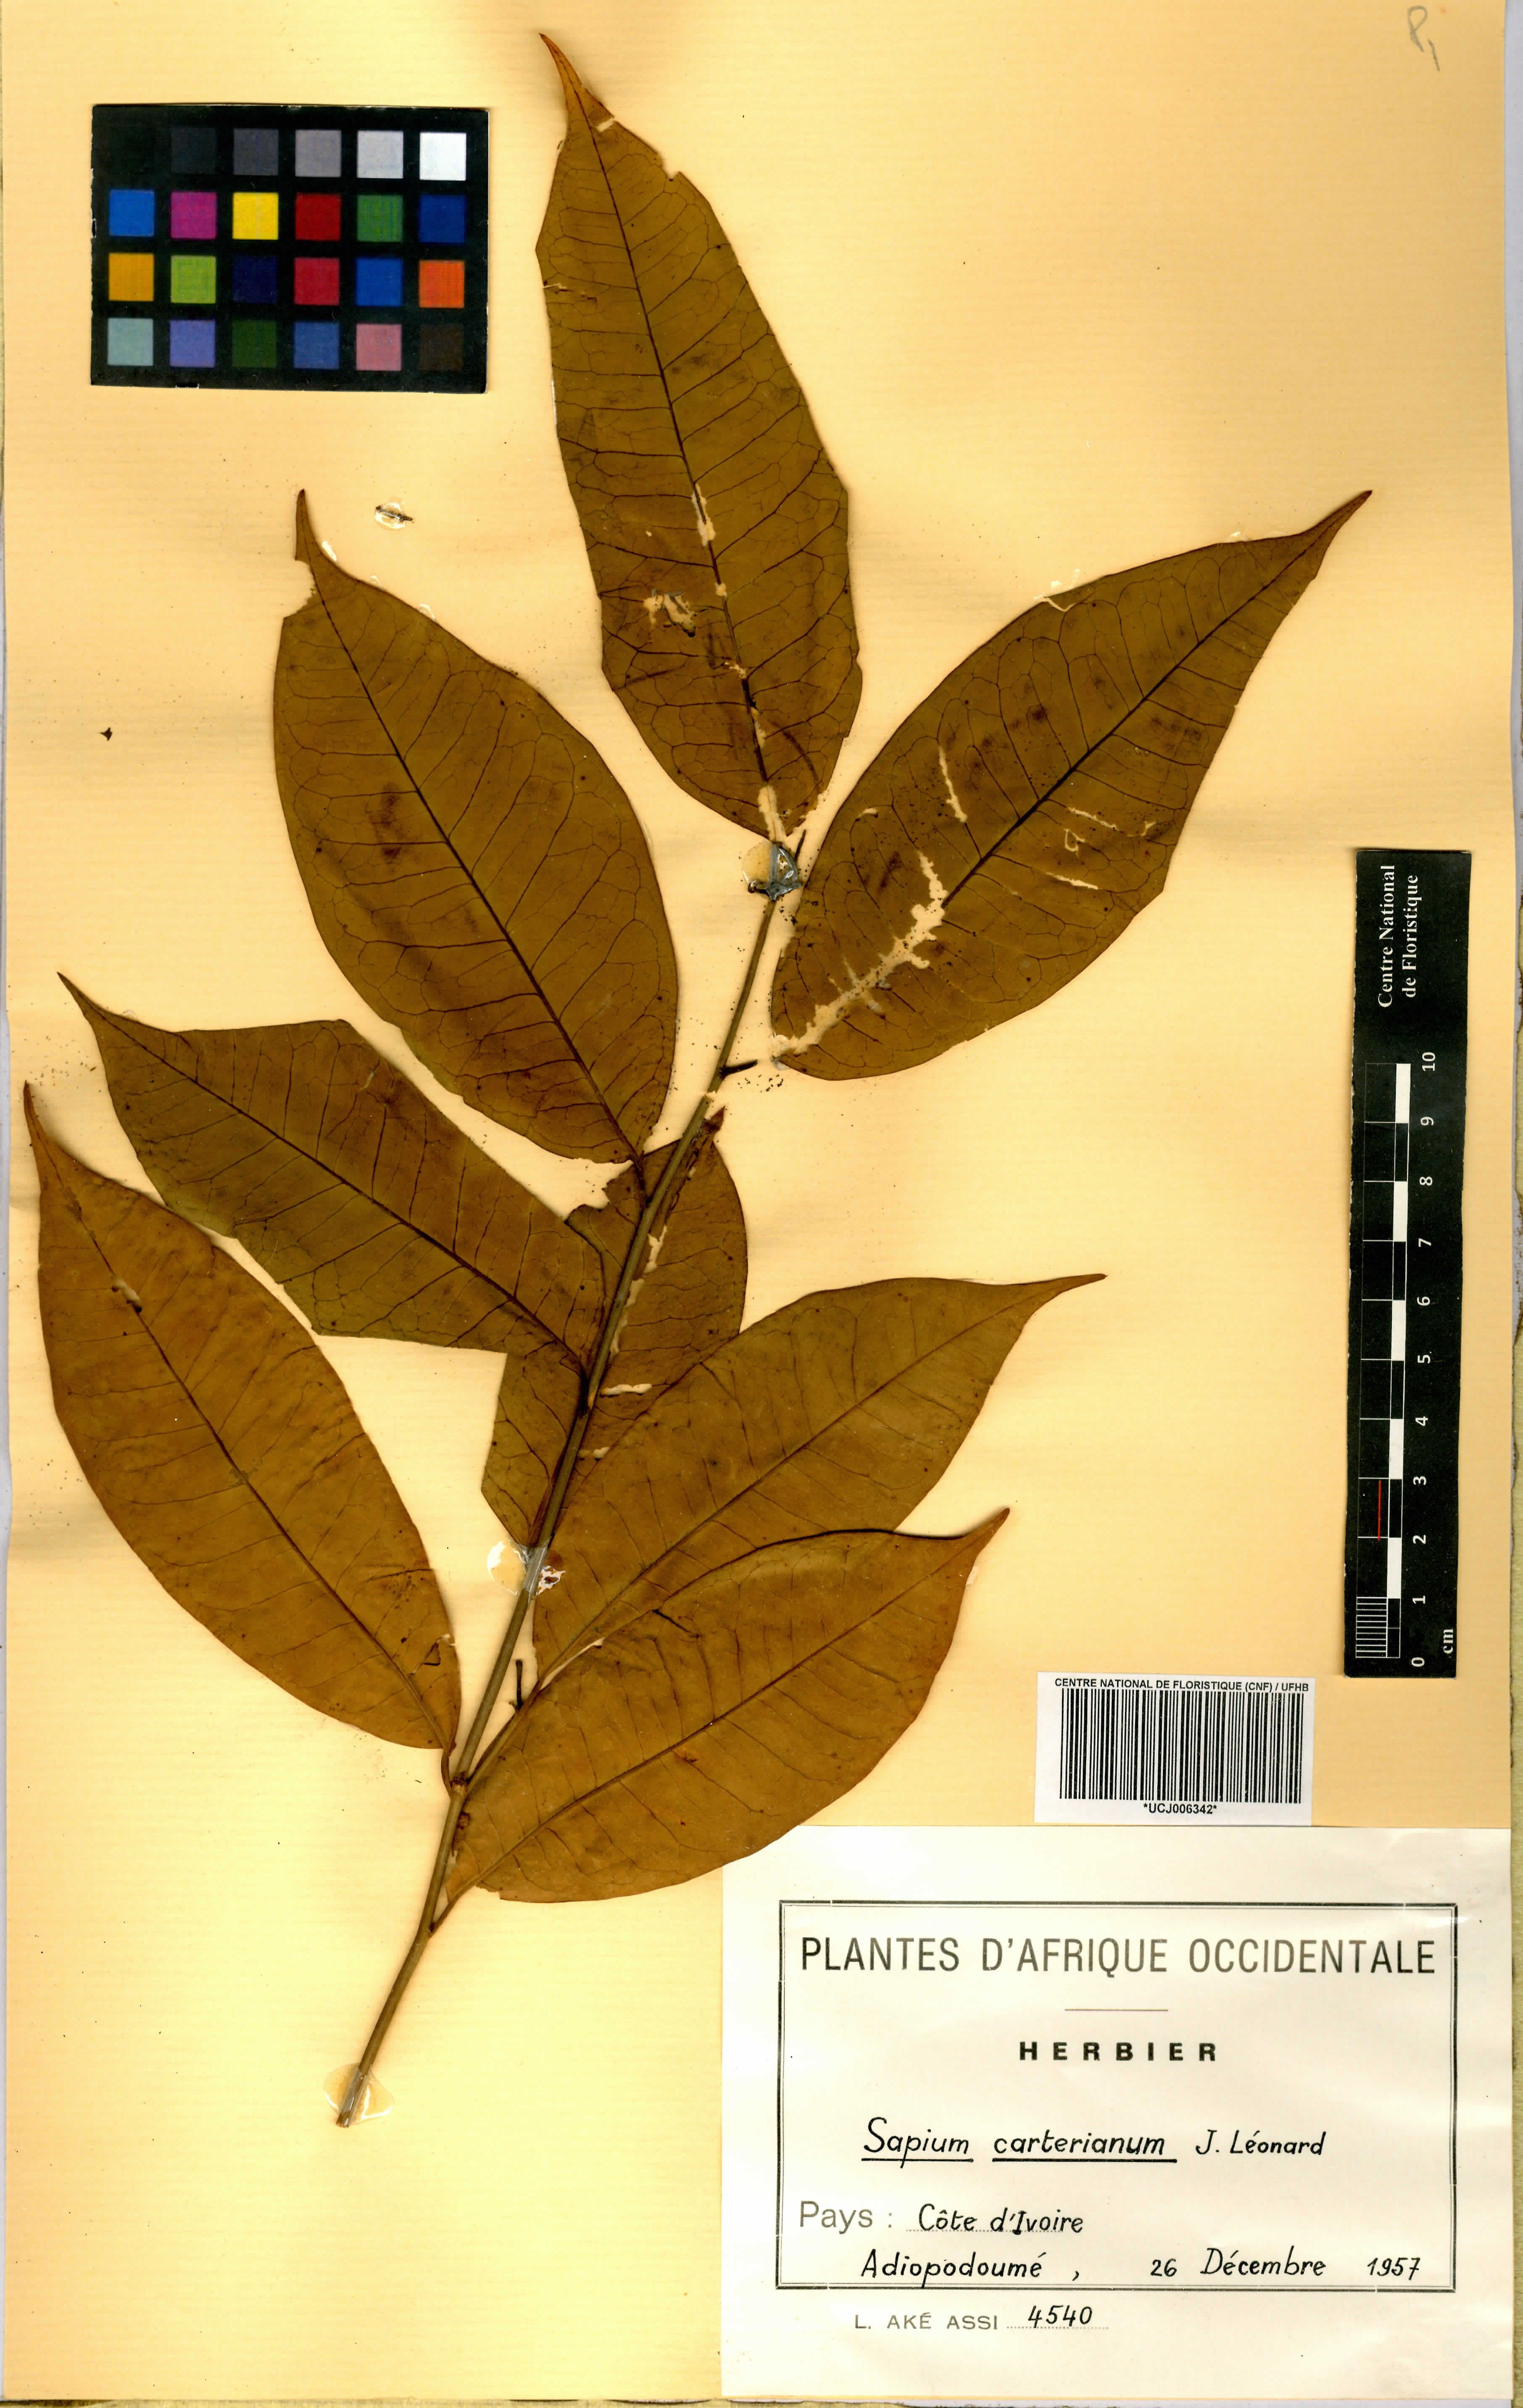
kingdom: Plantae
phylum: Tracheophyta
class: Magnoliopsida
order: Malpighiales
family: Euphorbiaceae
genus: Sclerocroton
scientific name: Sclerocroton carterianus
